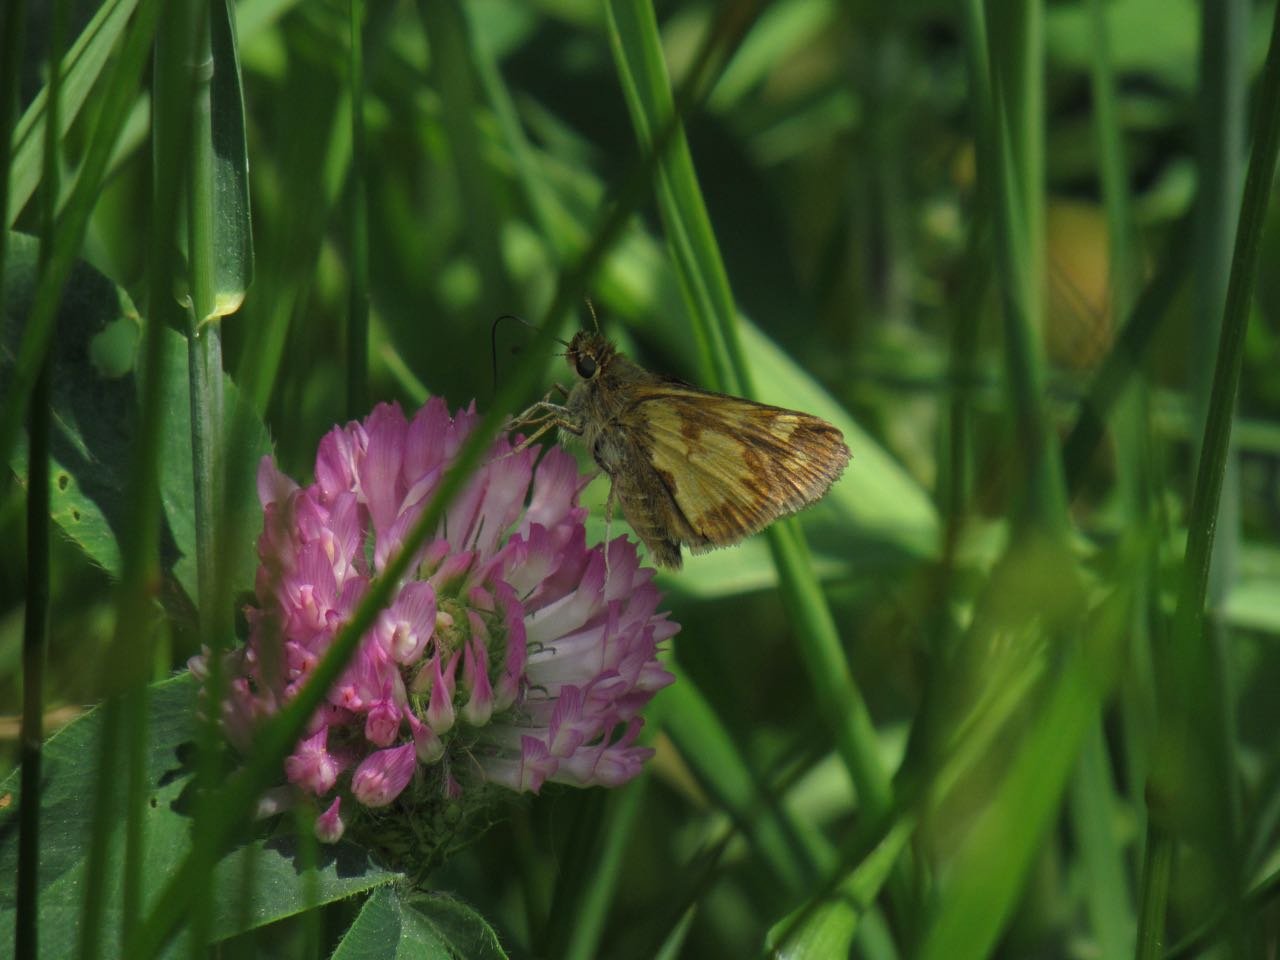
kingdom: Animalia
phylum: Arthropoda
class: Insecta
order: Lepidoptera
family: Hesperiidae
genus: Polites
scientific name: Polites coras
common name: Peck's Skipper
